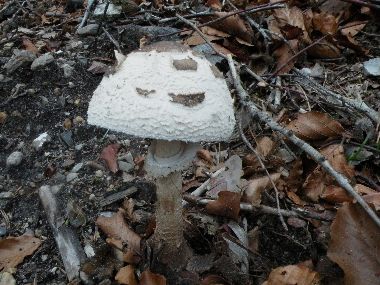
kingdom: Fungi
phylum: Basidiomycota
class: Agaricomycetes
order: Agaricales
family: Agaricaceae
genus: Macrolepiota
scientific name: Macrolepiota mastoidea
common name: puklet kæmpeparasolhat
